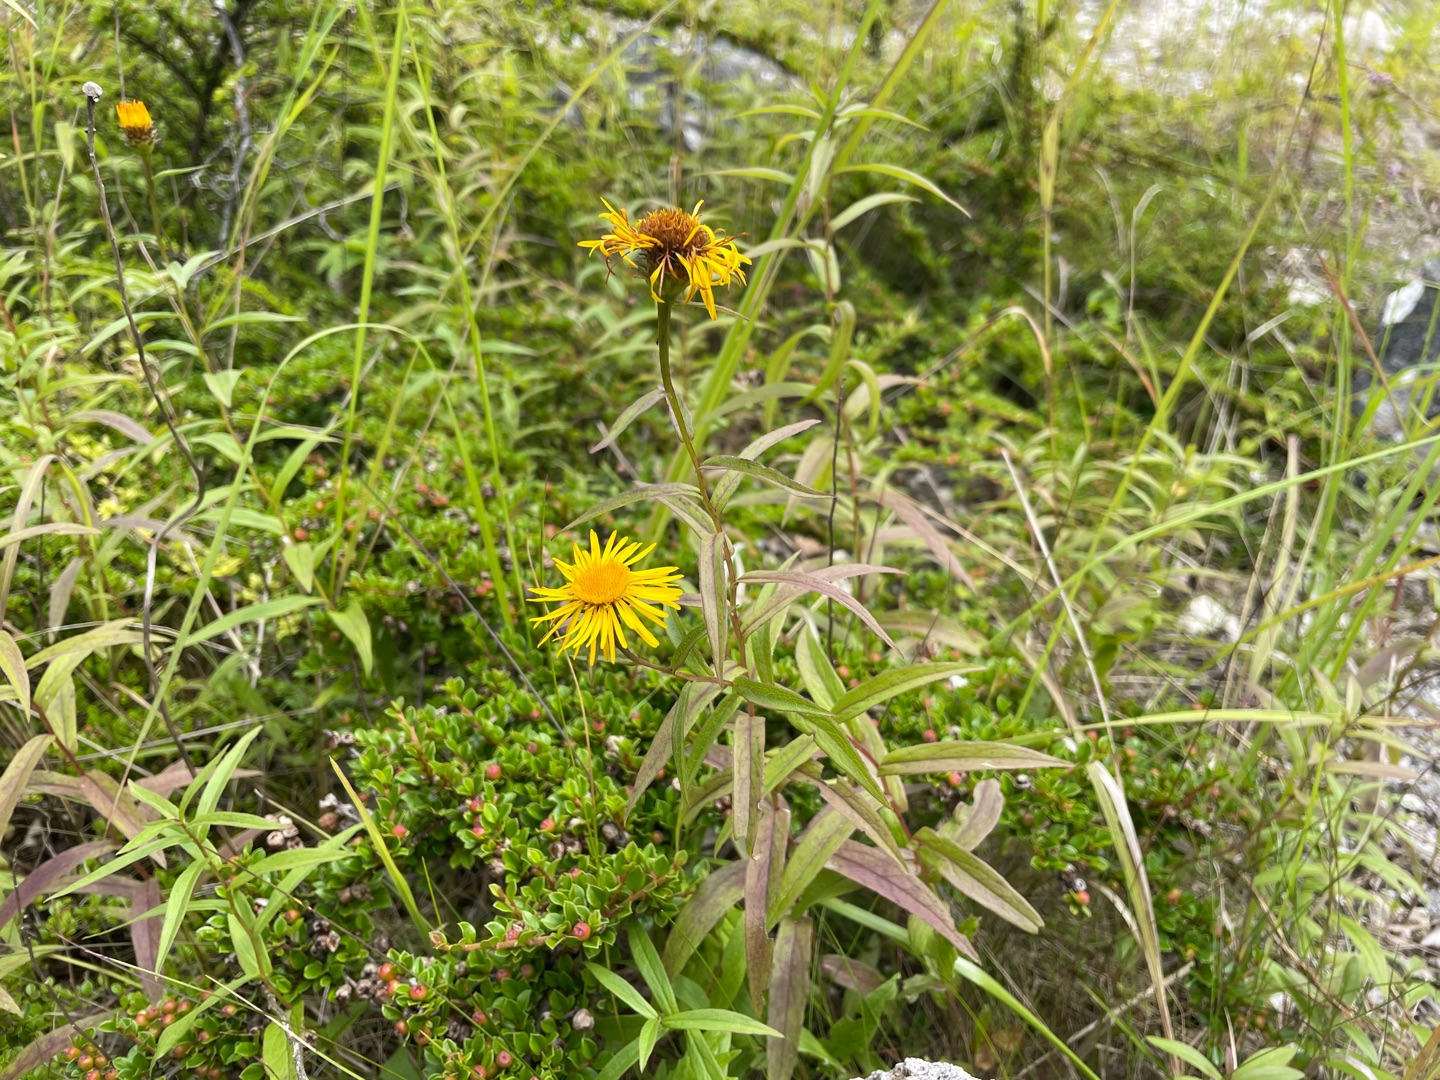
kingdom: Plantae
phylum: Tracheophyta
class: Magnoliopsida
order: Asterales
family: Asteraceae
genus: Pentanema
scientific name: Pentanema salicinum
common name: Pile-alant
